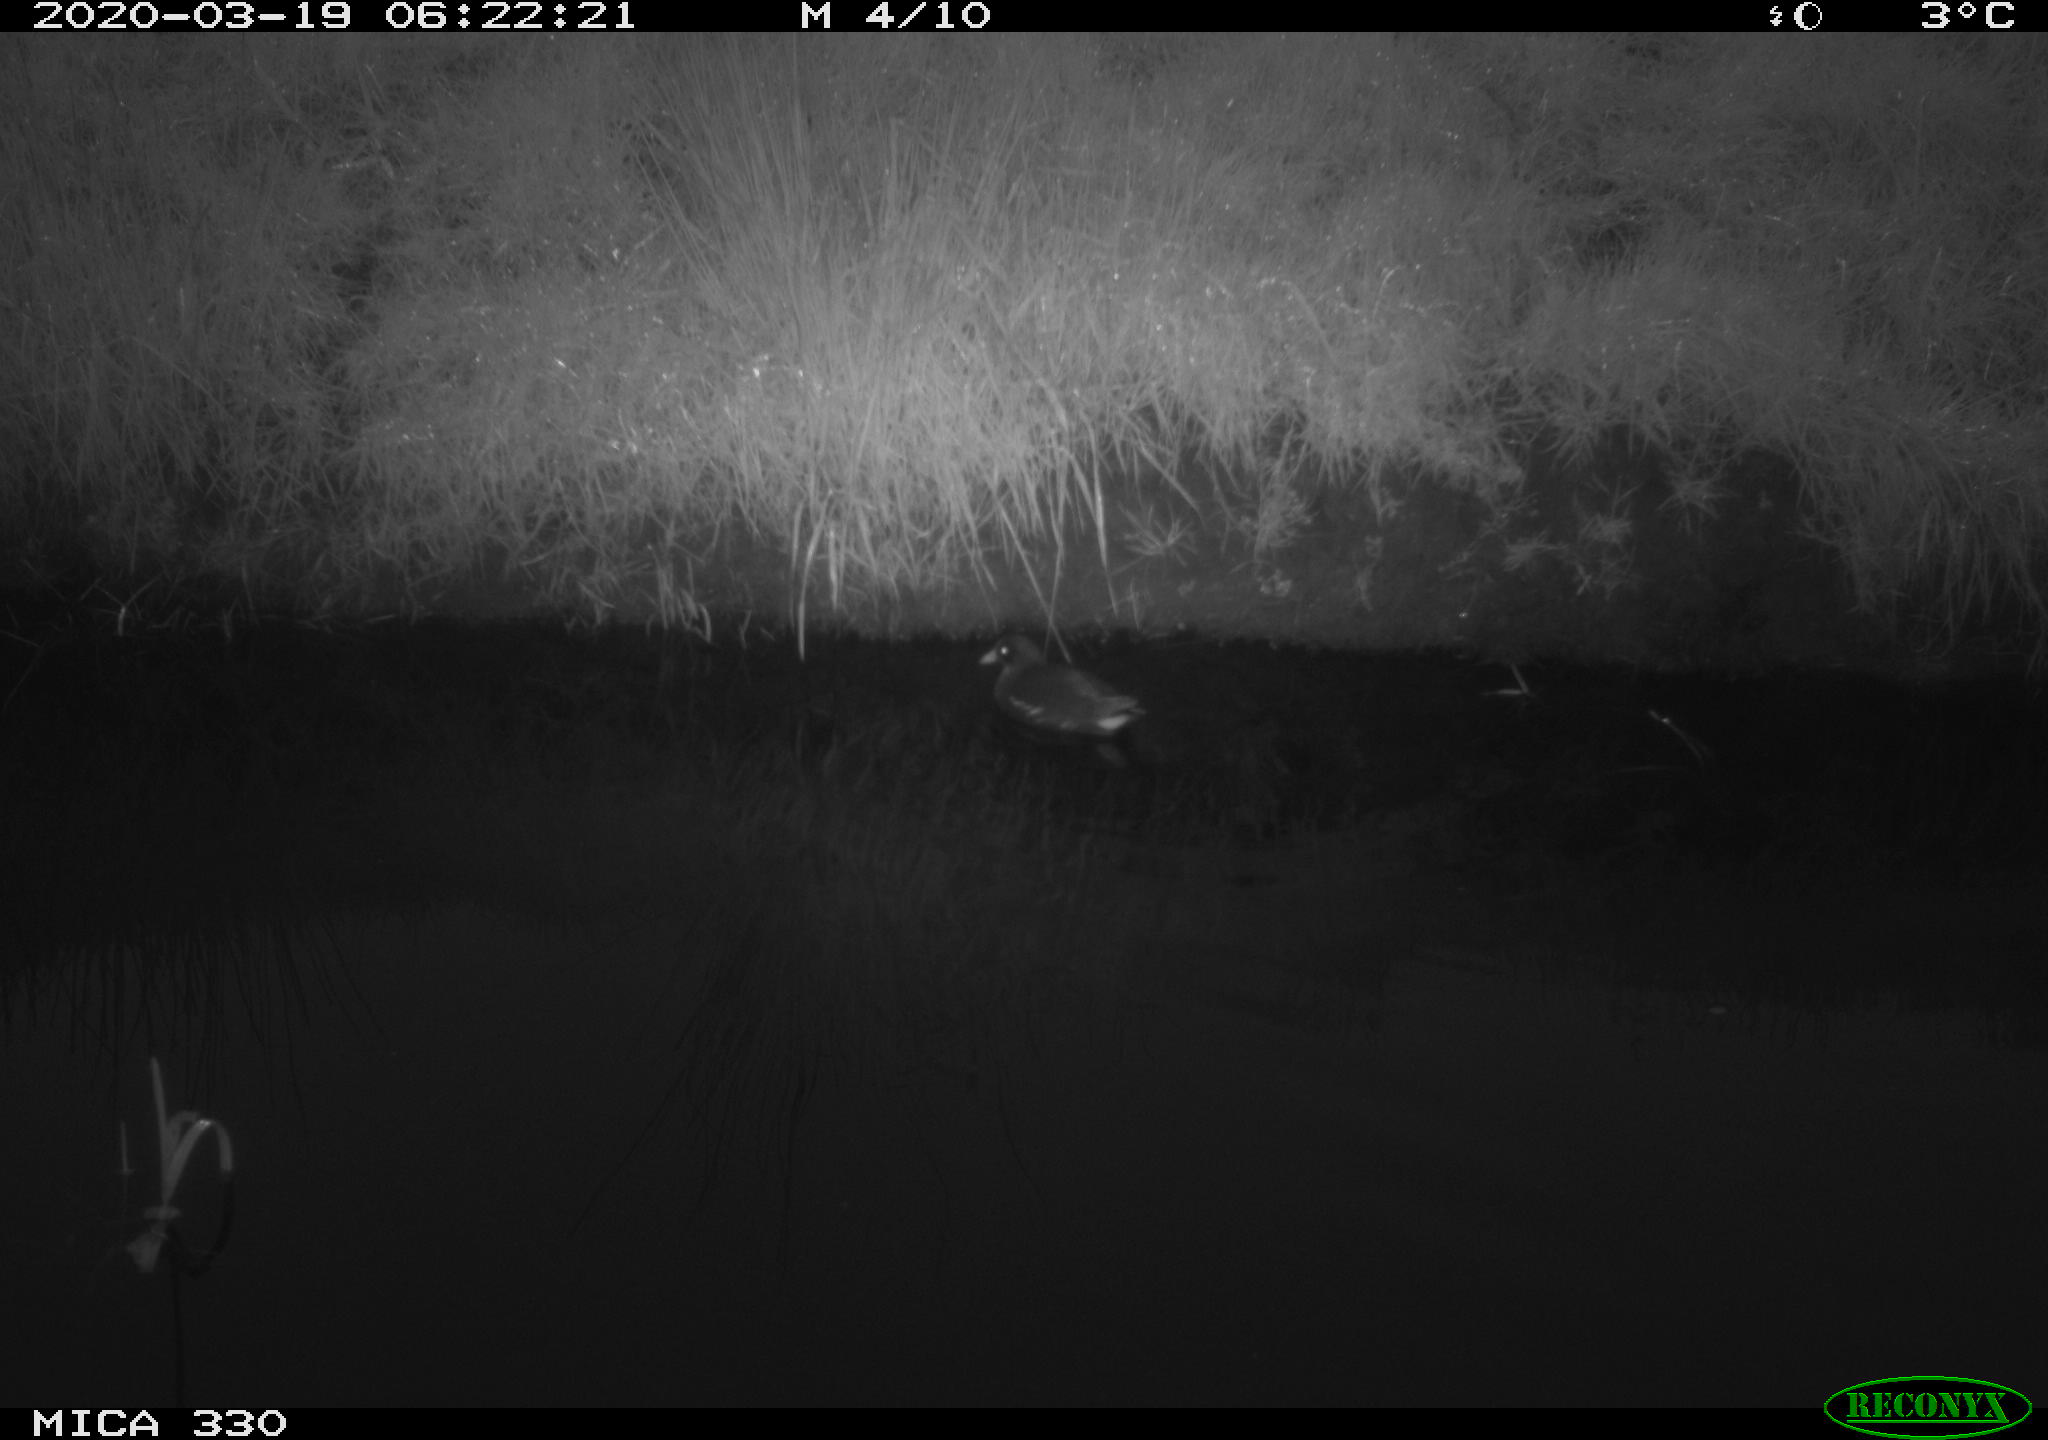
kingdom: Animalia
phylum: Chordata
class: Aves
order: Gruiformes
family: Rallidae
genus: Gallinula
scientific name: Gallinula chloropus
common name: Common moorhen
